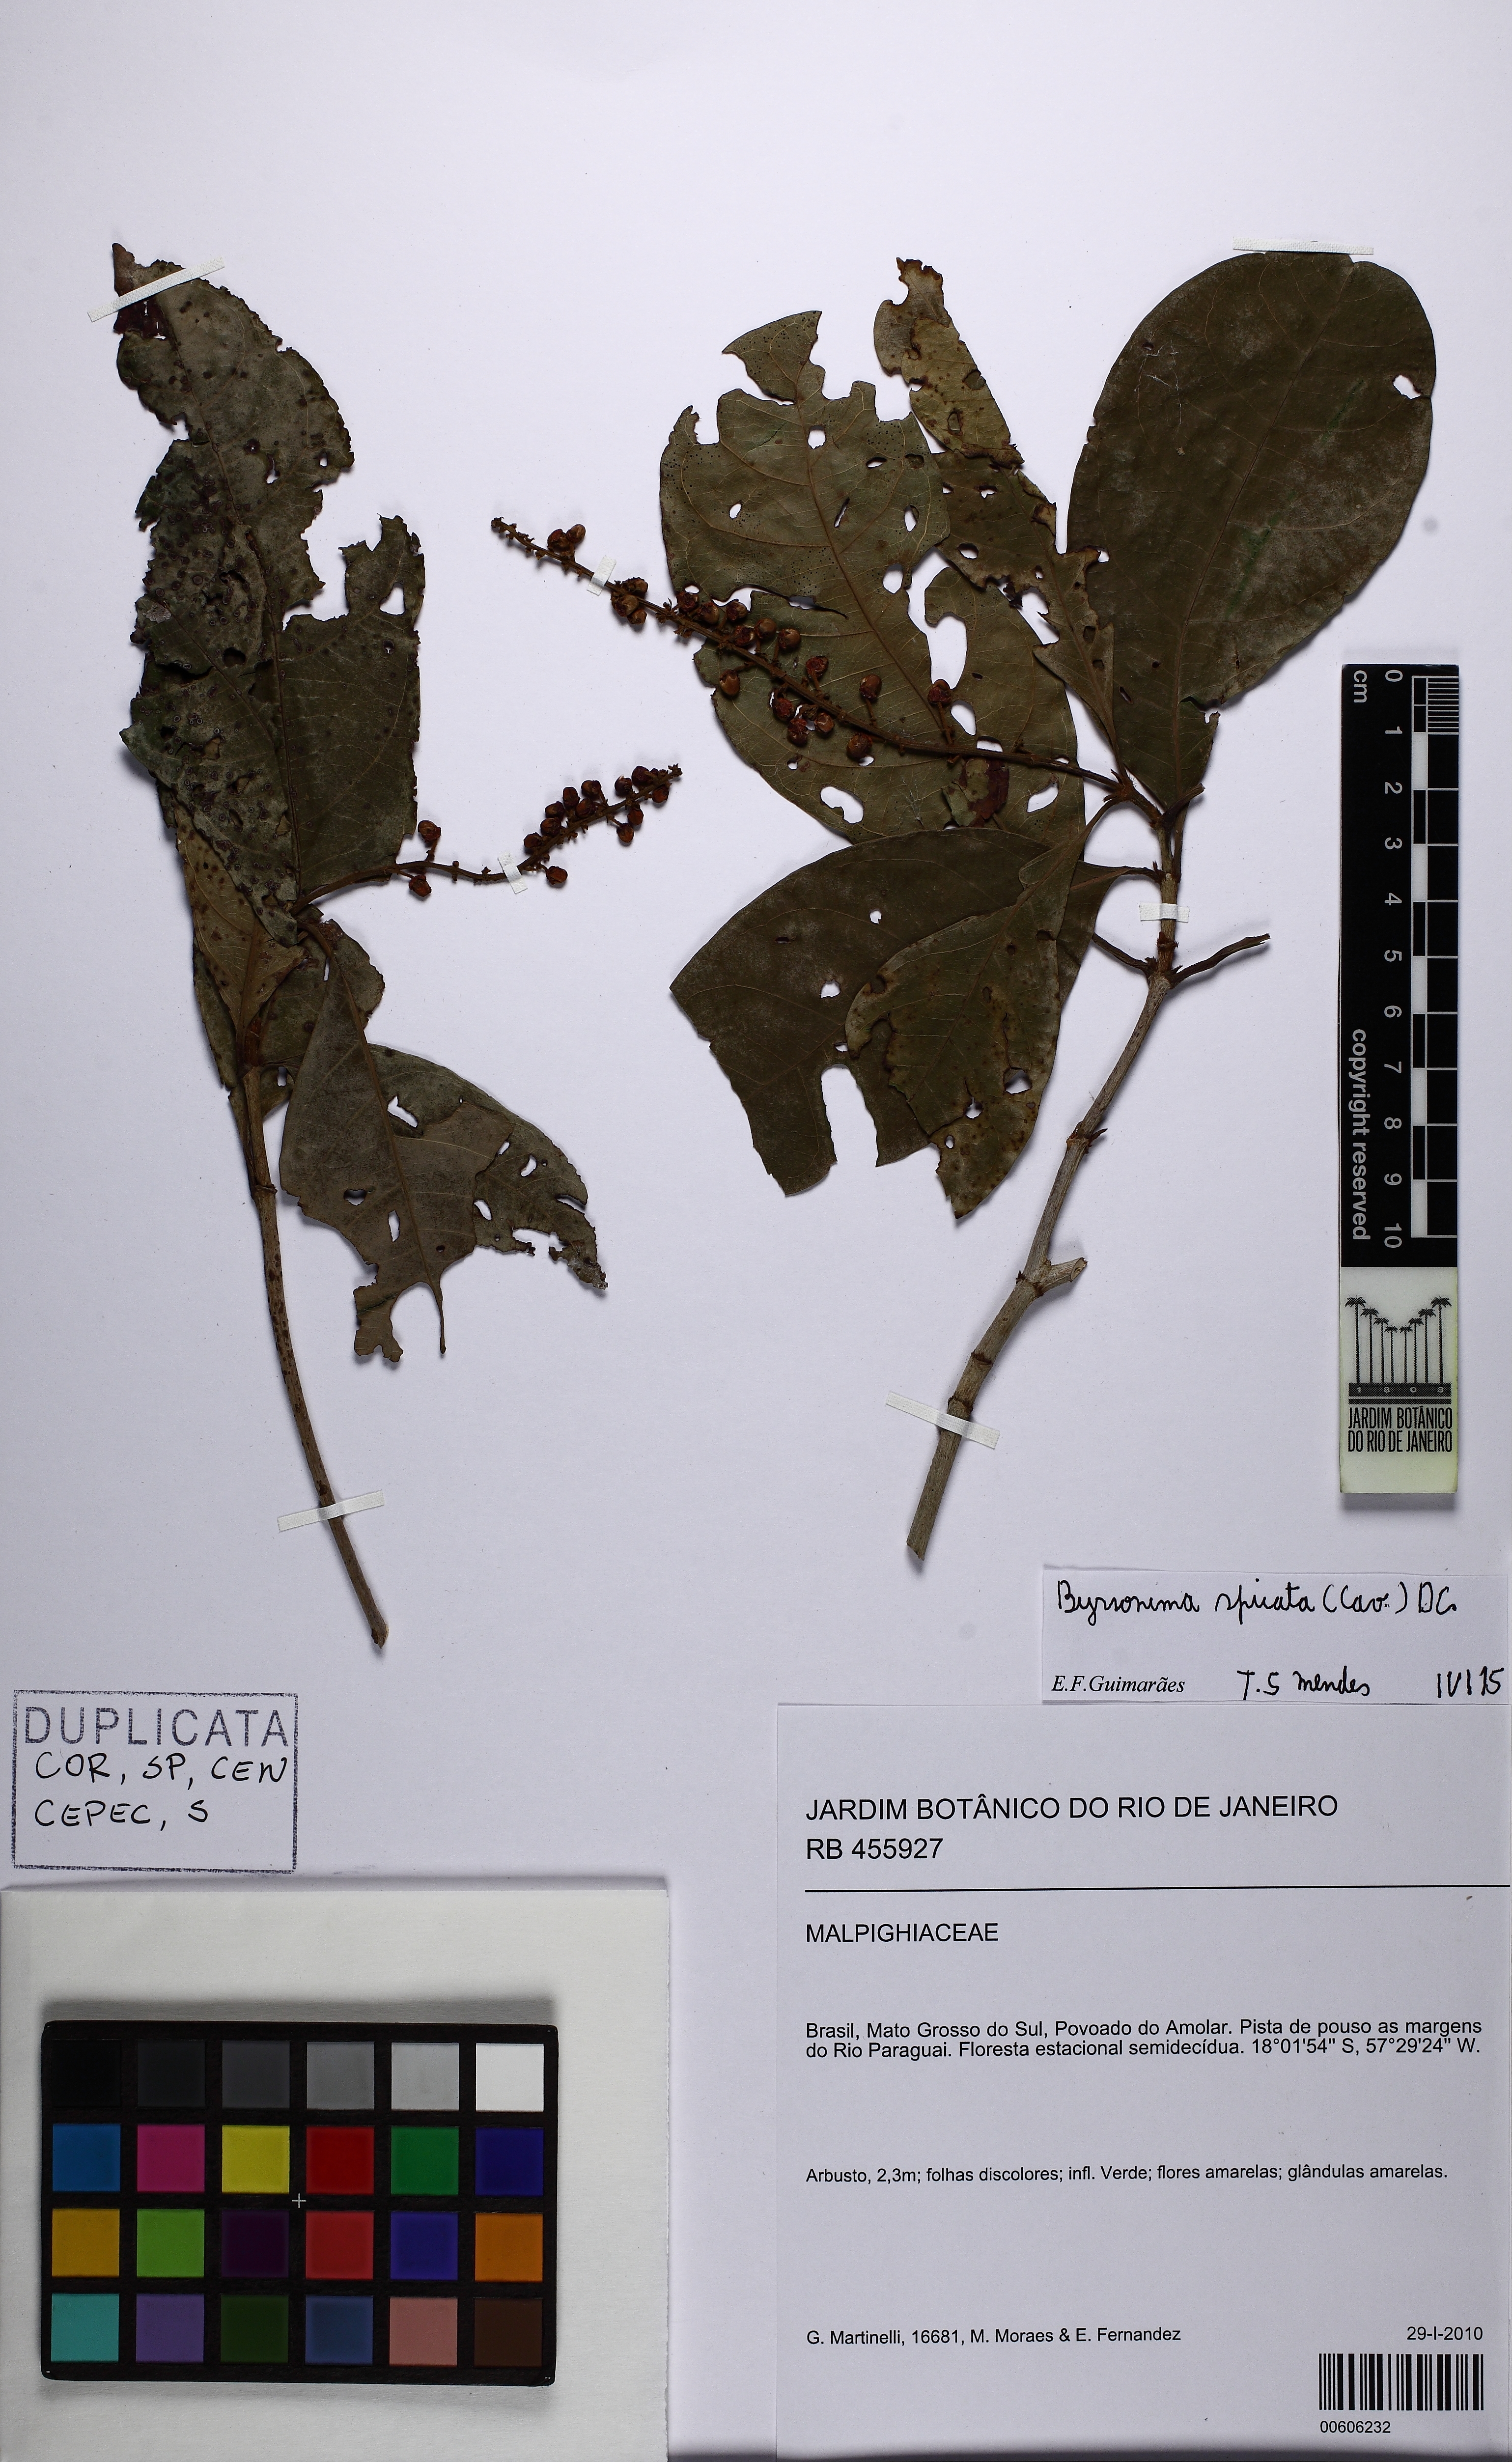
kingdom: Plantae
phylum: Tracheophyta
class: Magnoliopsida
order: Malpighiales
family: Malpighiaceae
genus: Byrsonima
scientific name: Byrsonima spicata
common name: Murixi-bark-tree
